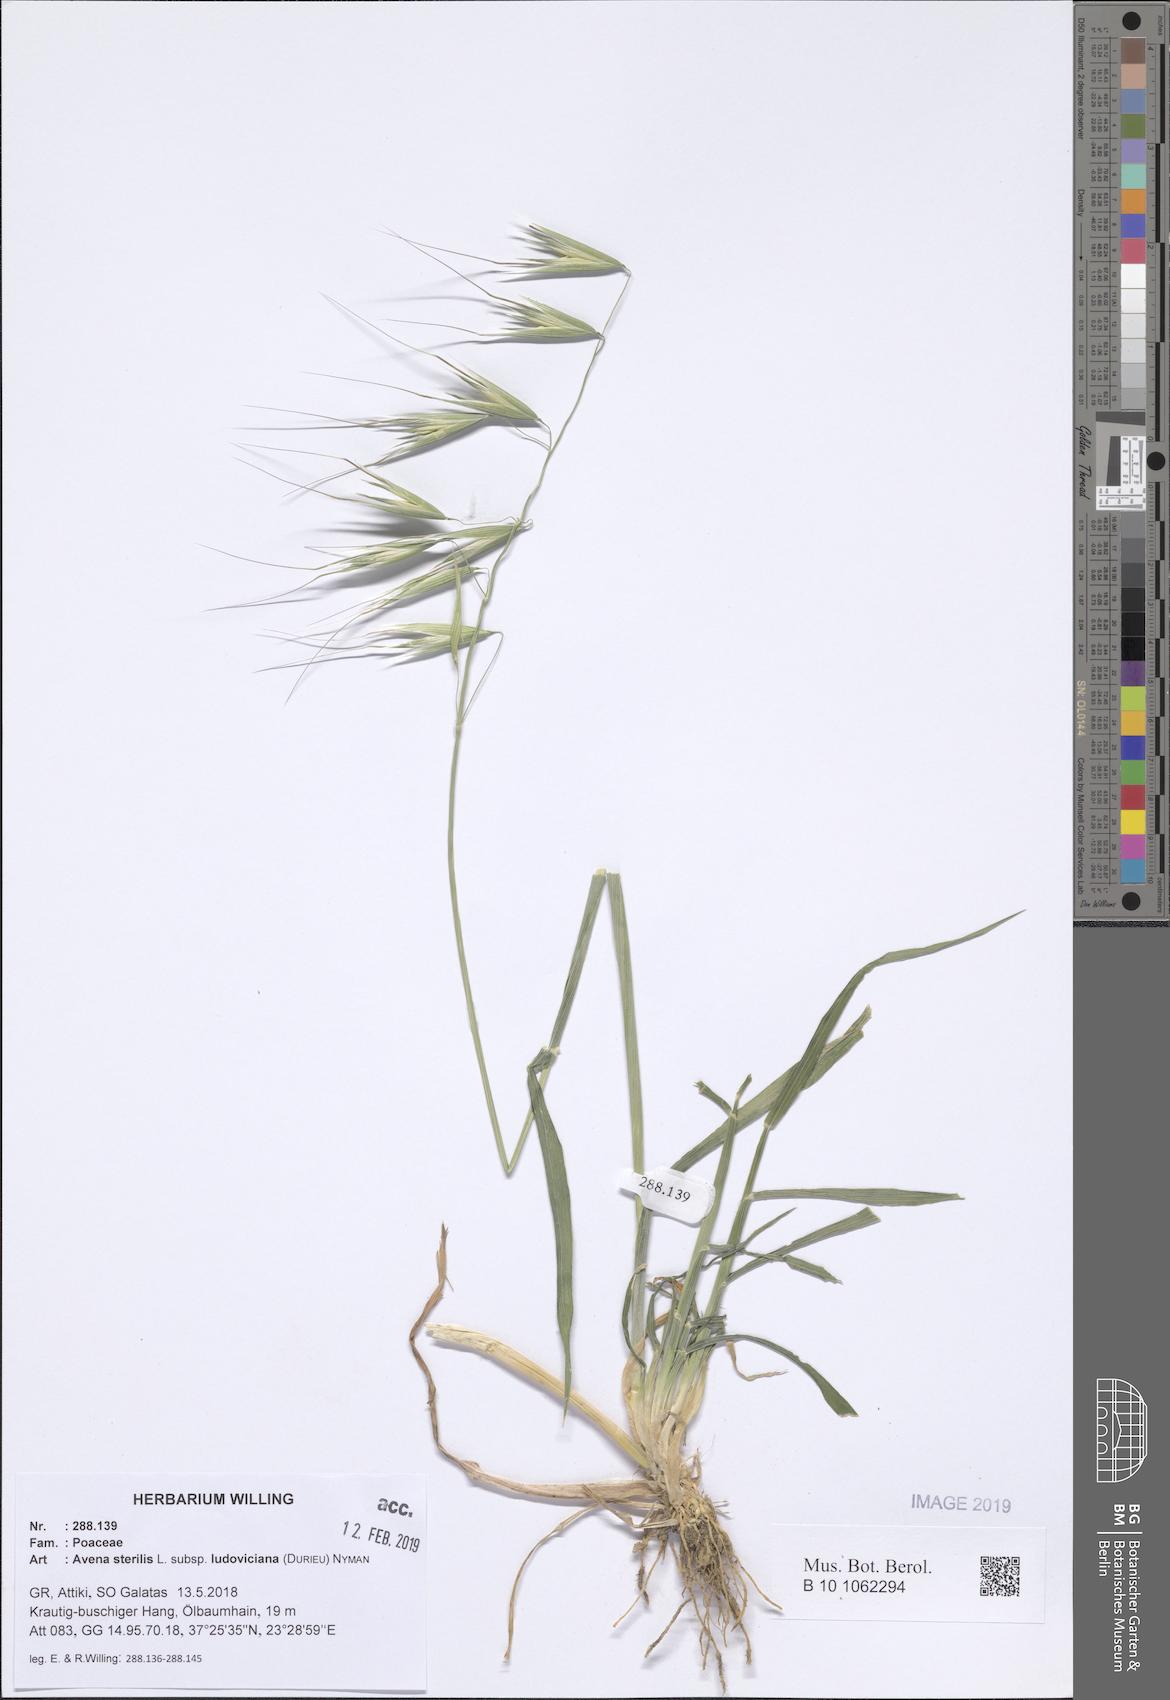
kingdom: Plantae
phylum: Tracheophyta
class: Liliopsida
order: Poales
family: Poaceae
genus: Avena
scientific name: Avena sterilis
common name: Animated oat
